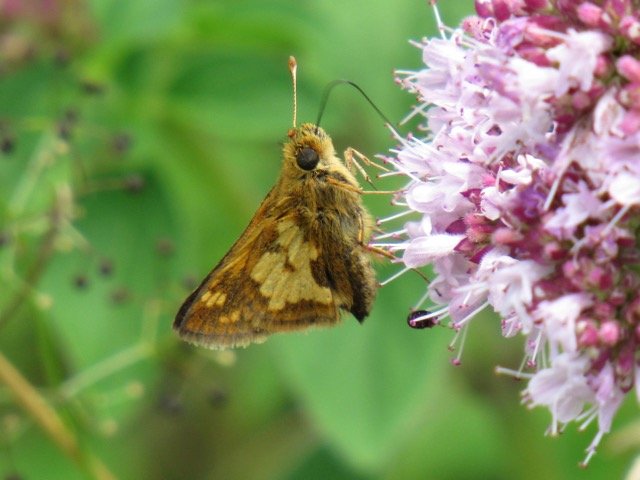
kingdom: Animalia
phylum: Arthropoda
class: Insecta
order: Lepidoptera
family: Hesperiidae
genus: Polites
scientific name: Polites coras
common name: Peck's Skipper
